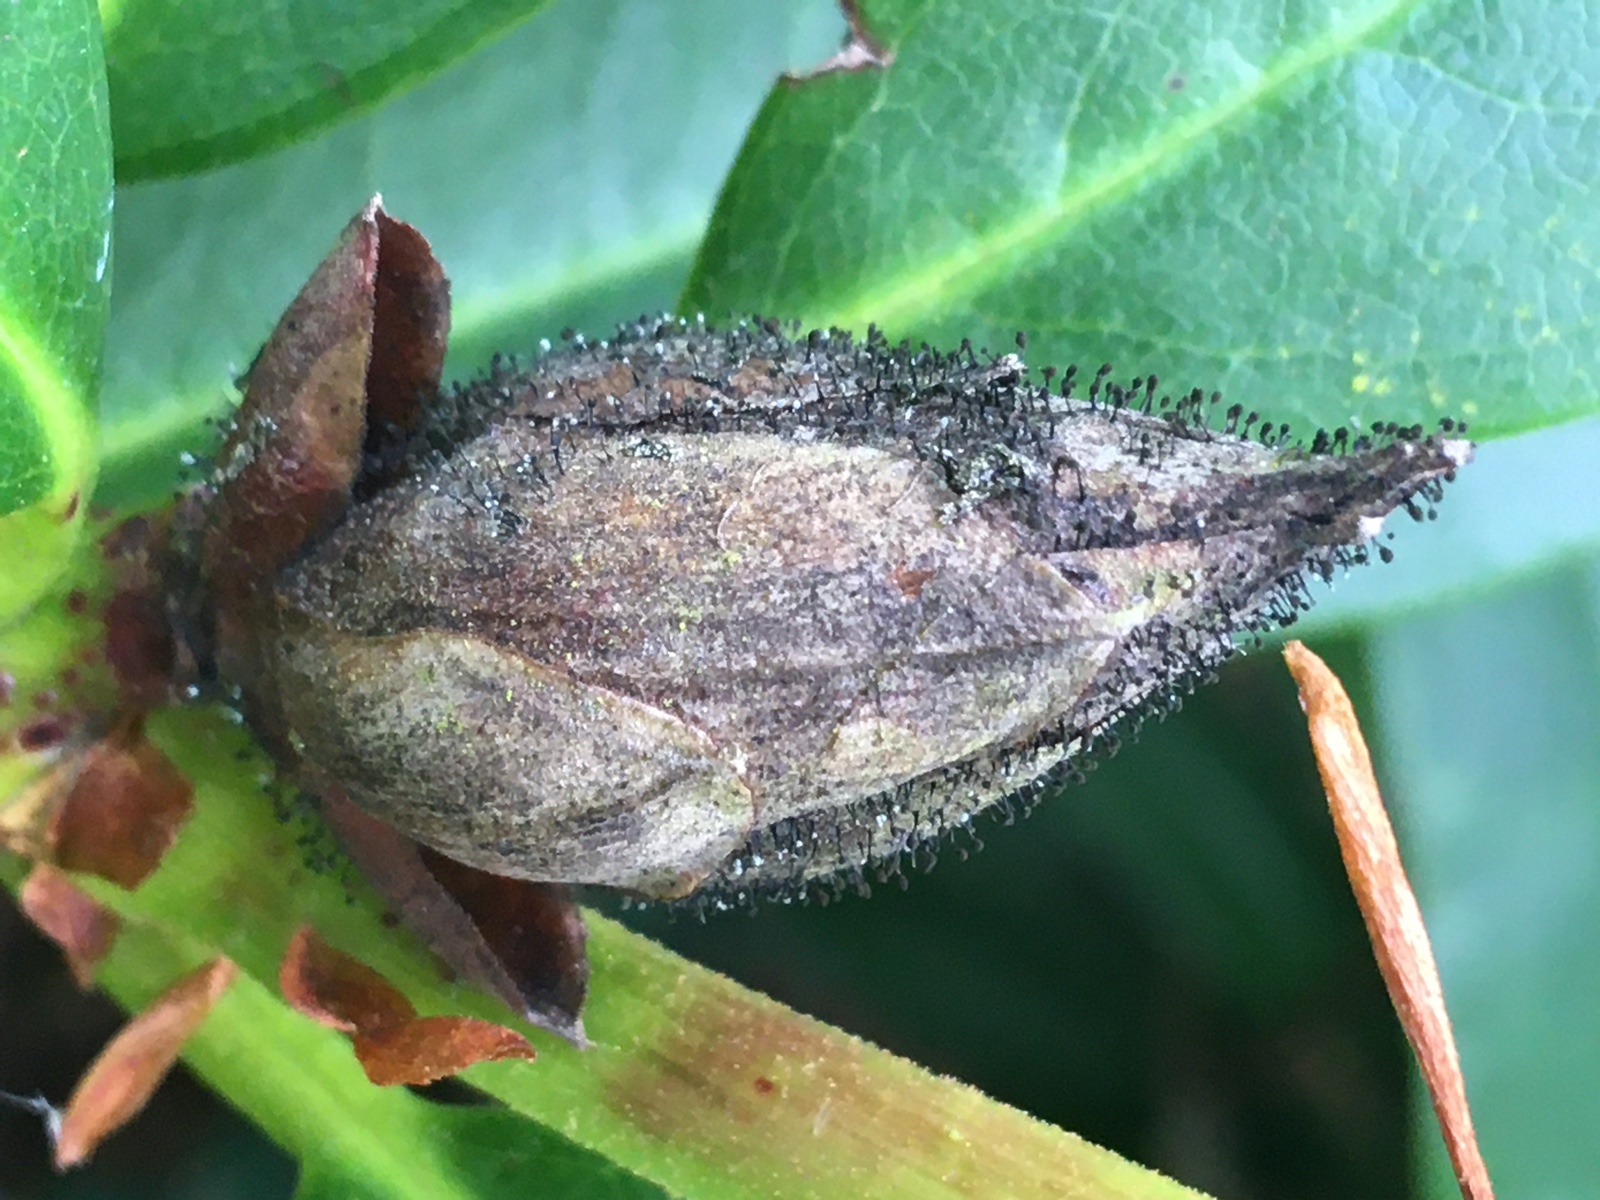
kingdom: Fungi
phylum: Ascomycota
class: Dothideomycetes
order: Pleosporales
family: Melanommataceae
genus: Seifertia
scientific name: Seifertia azaleae
